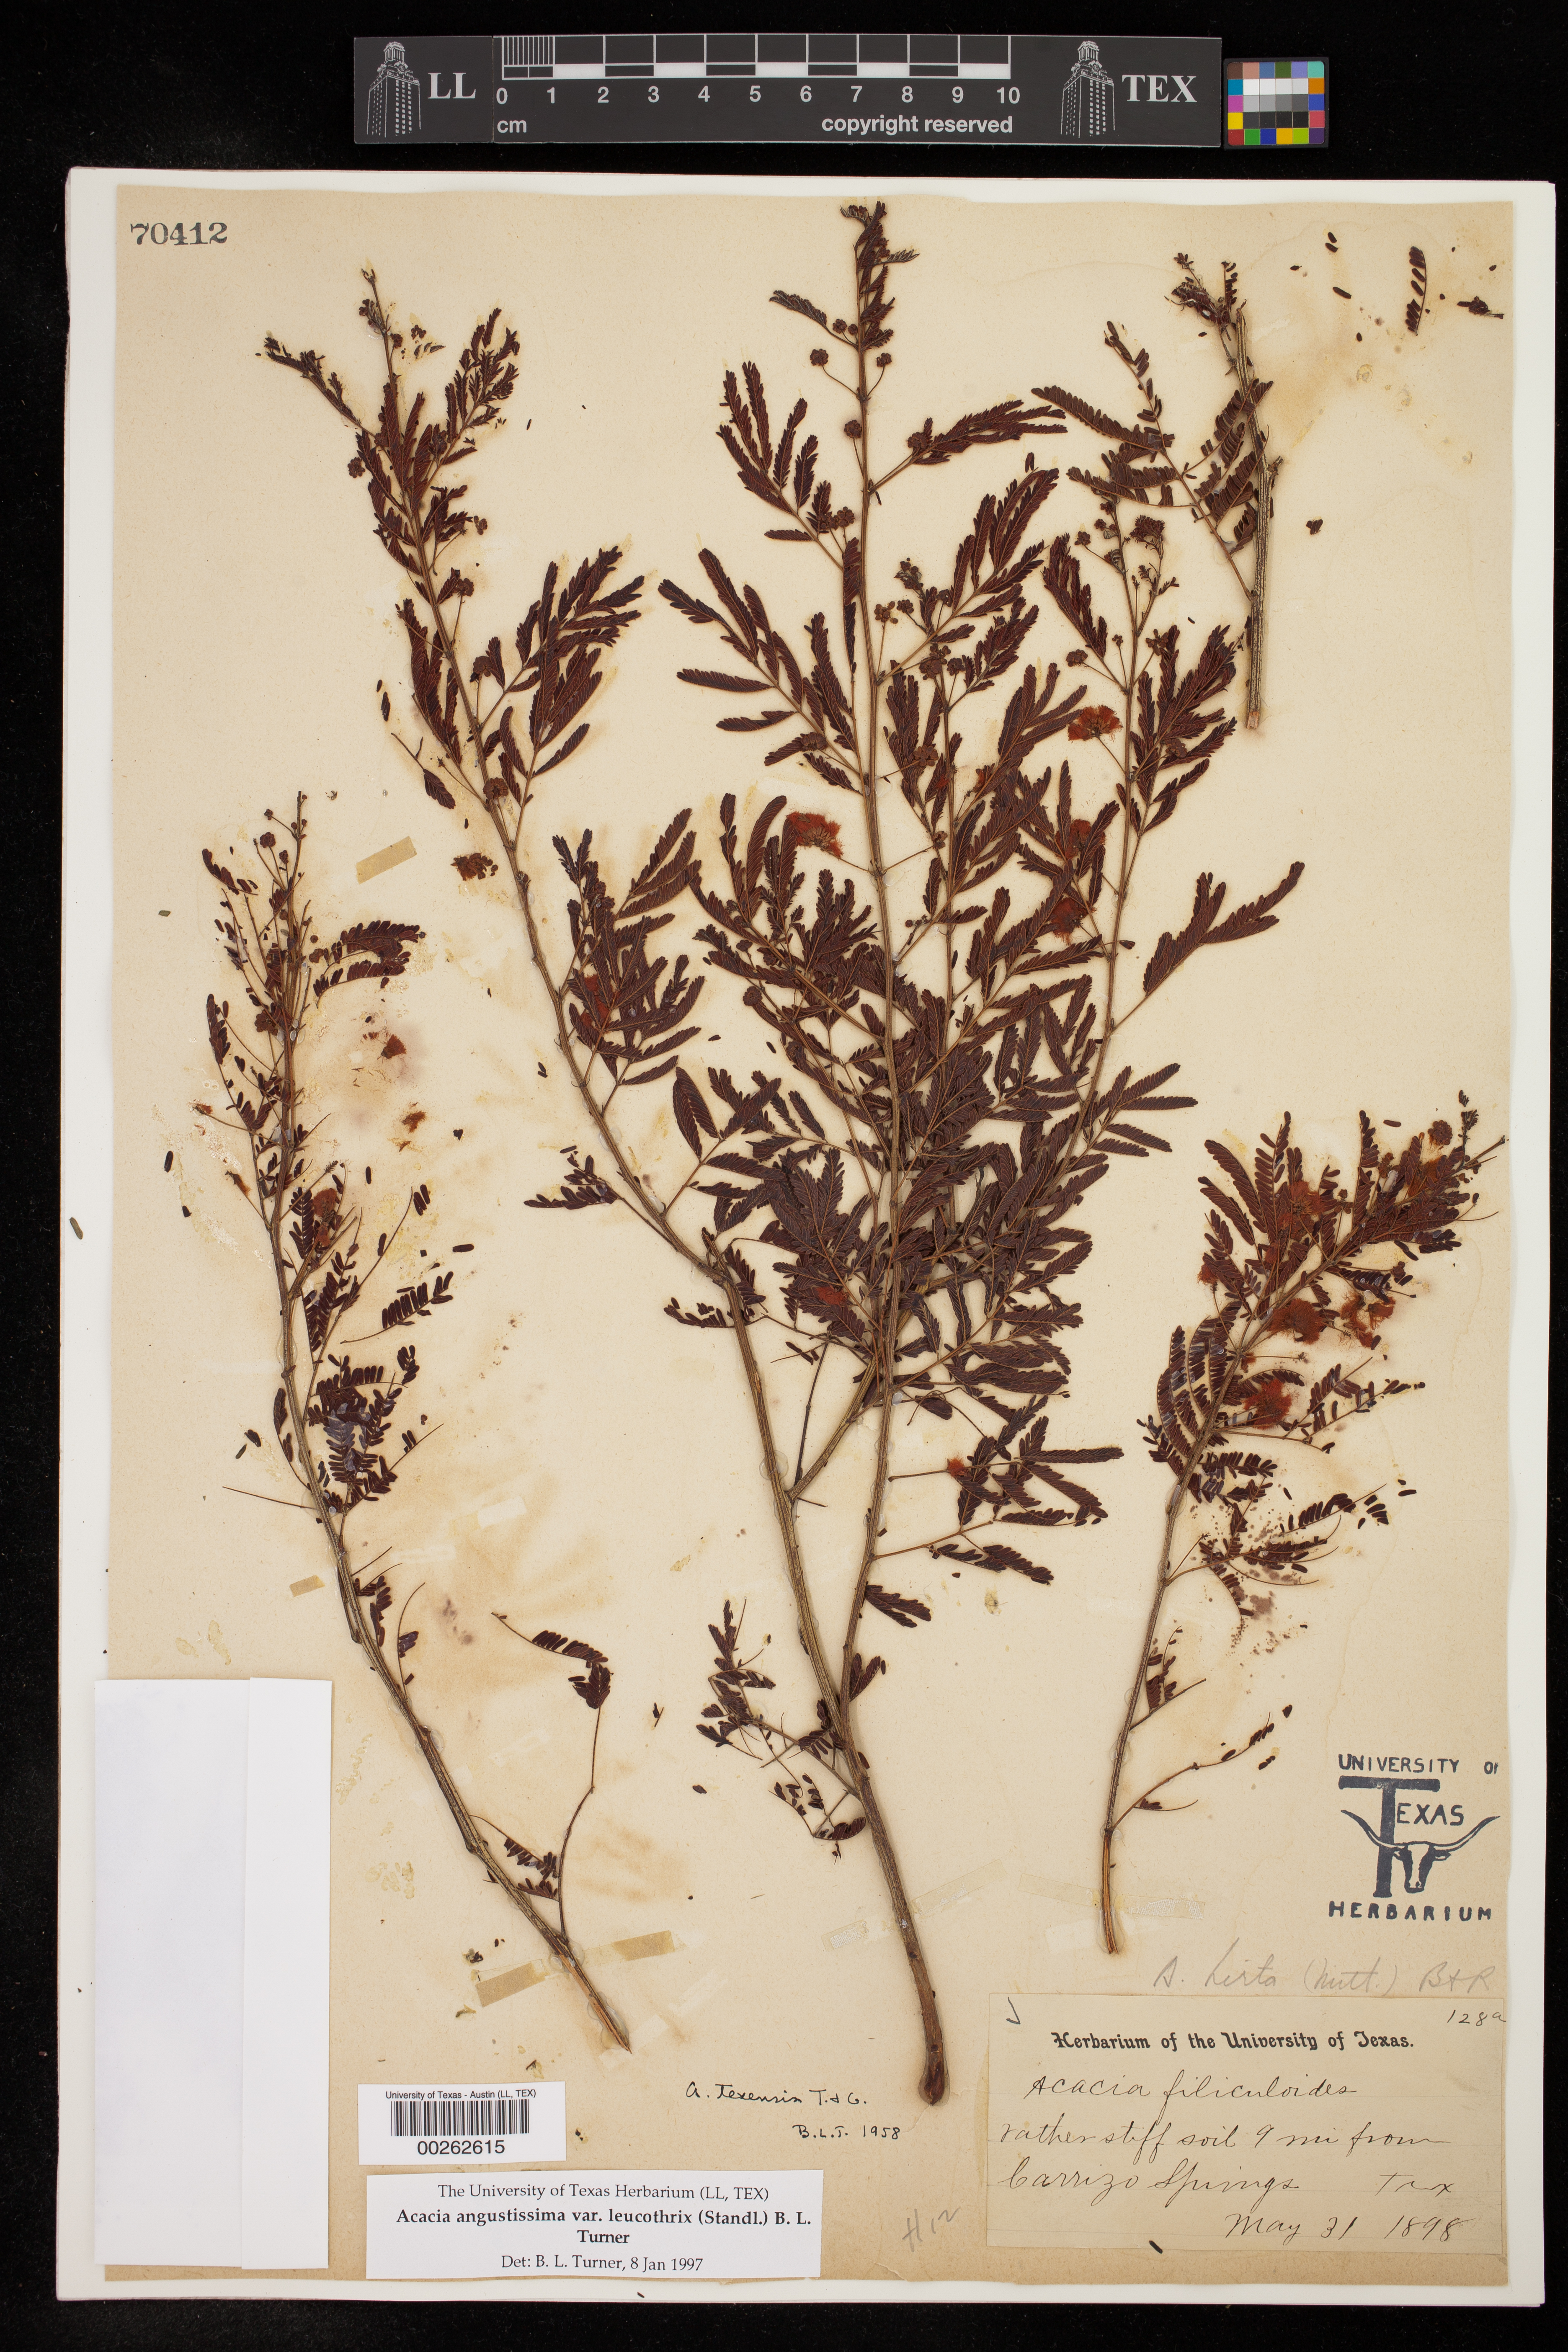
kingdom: Plantae
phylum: Tracheophyta
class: Magnoliopsida
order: Fabales
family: Fabaceae
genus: Acaciella
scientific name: Acaciella angustissima
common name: Prairie acacia
